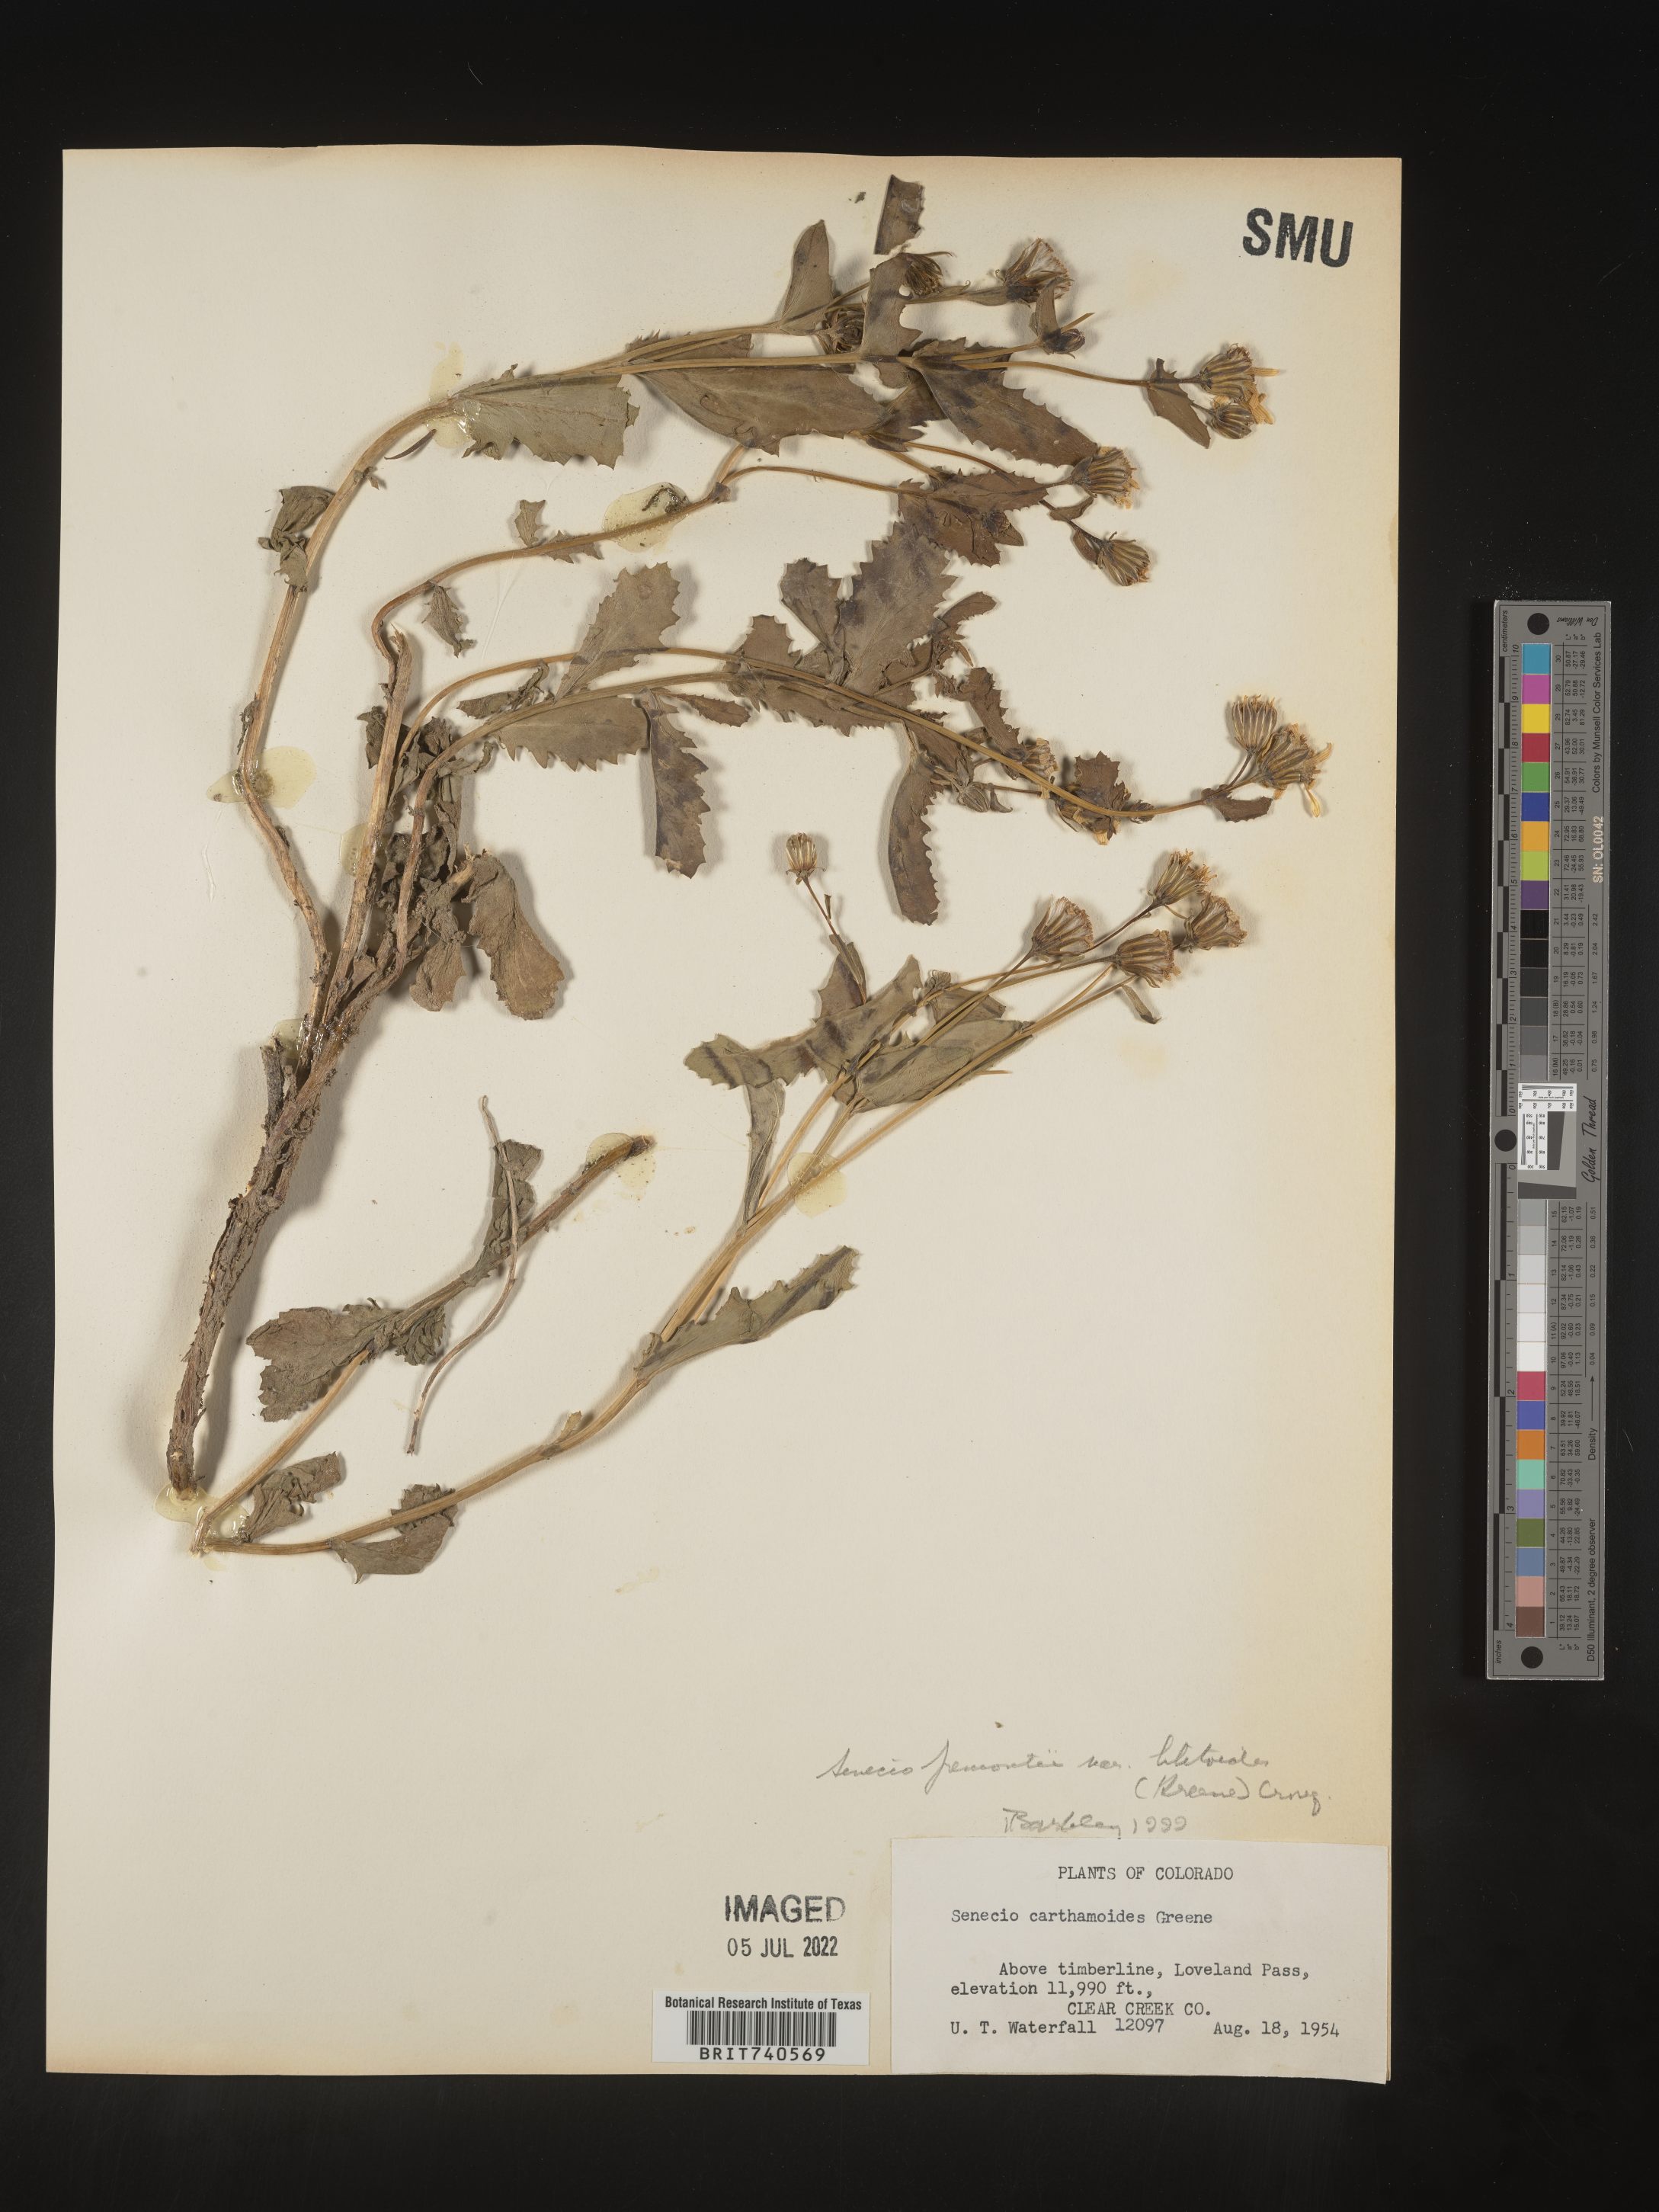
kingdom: Plantae
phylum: Tracheophyta
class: Magnoliopsida
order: Asterales
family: Asteraceae
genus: Senecio
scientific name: Senecio blitoides
